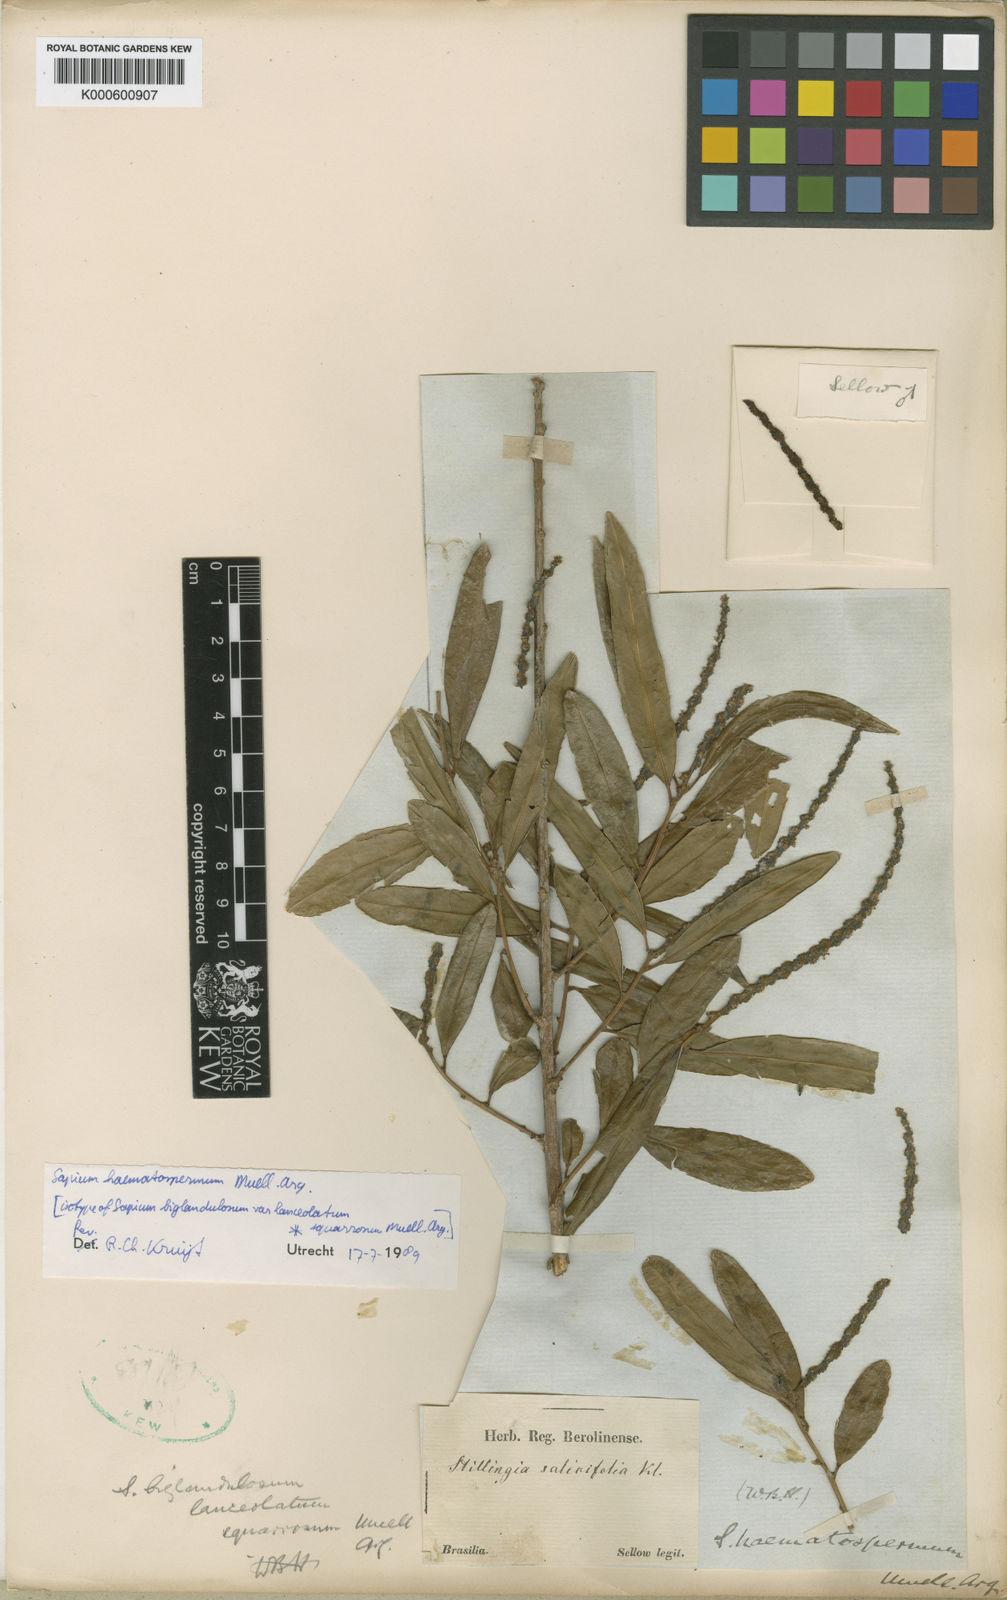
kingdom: Plantae
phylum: Tracheophyta
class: Magnoliopsida
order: Malpighiales
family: Euphorbiaceae
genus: Sapium
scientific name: Sapium
